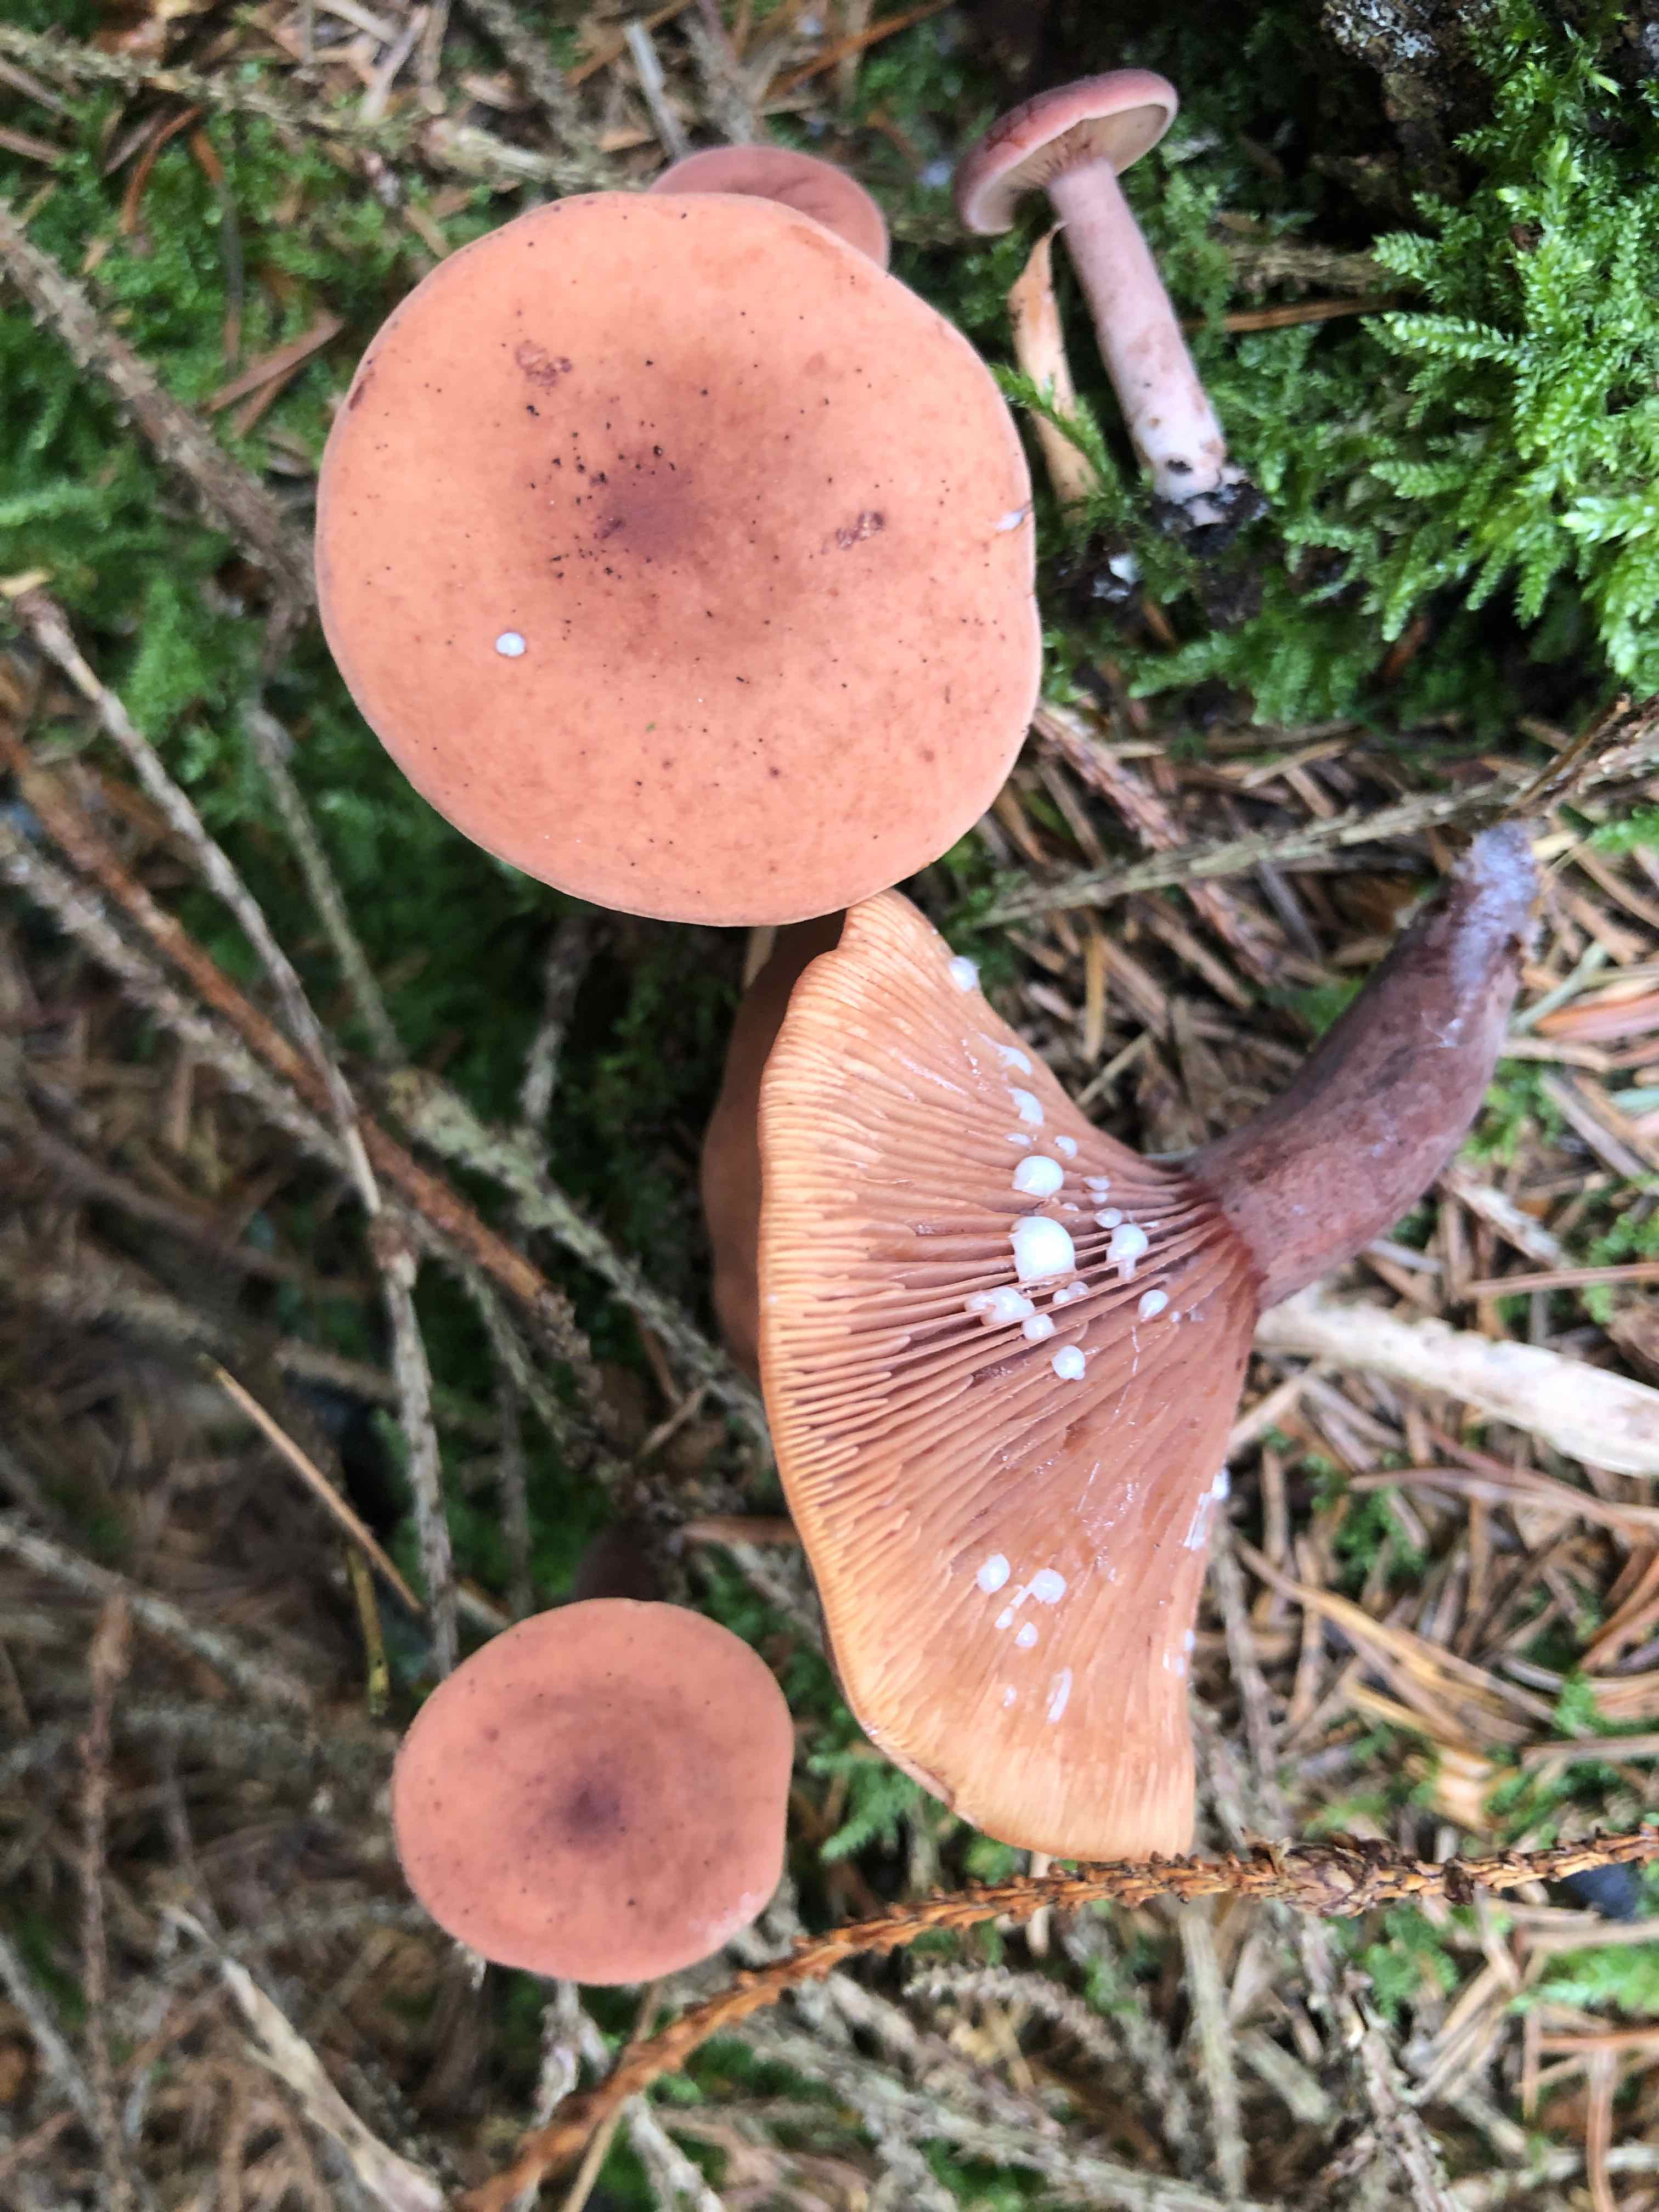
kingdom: Fungi
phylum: Basidiomycota
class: Agaricomycetes
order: Russulales
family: Russulaceae
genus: Lactarius
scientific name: Lactarius camphoratus
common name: kamfer-mælkehat
